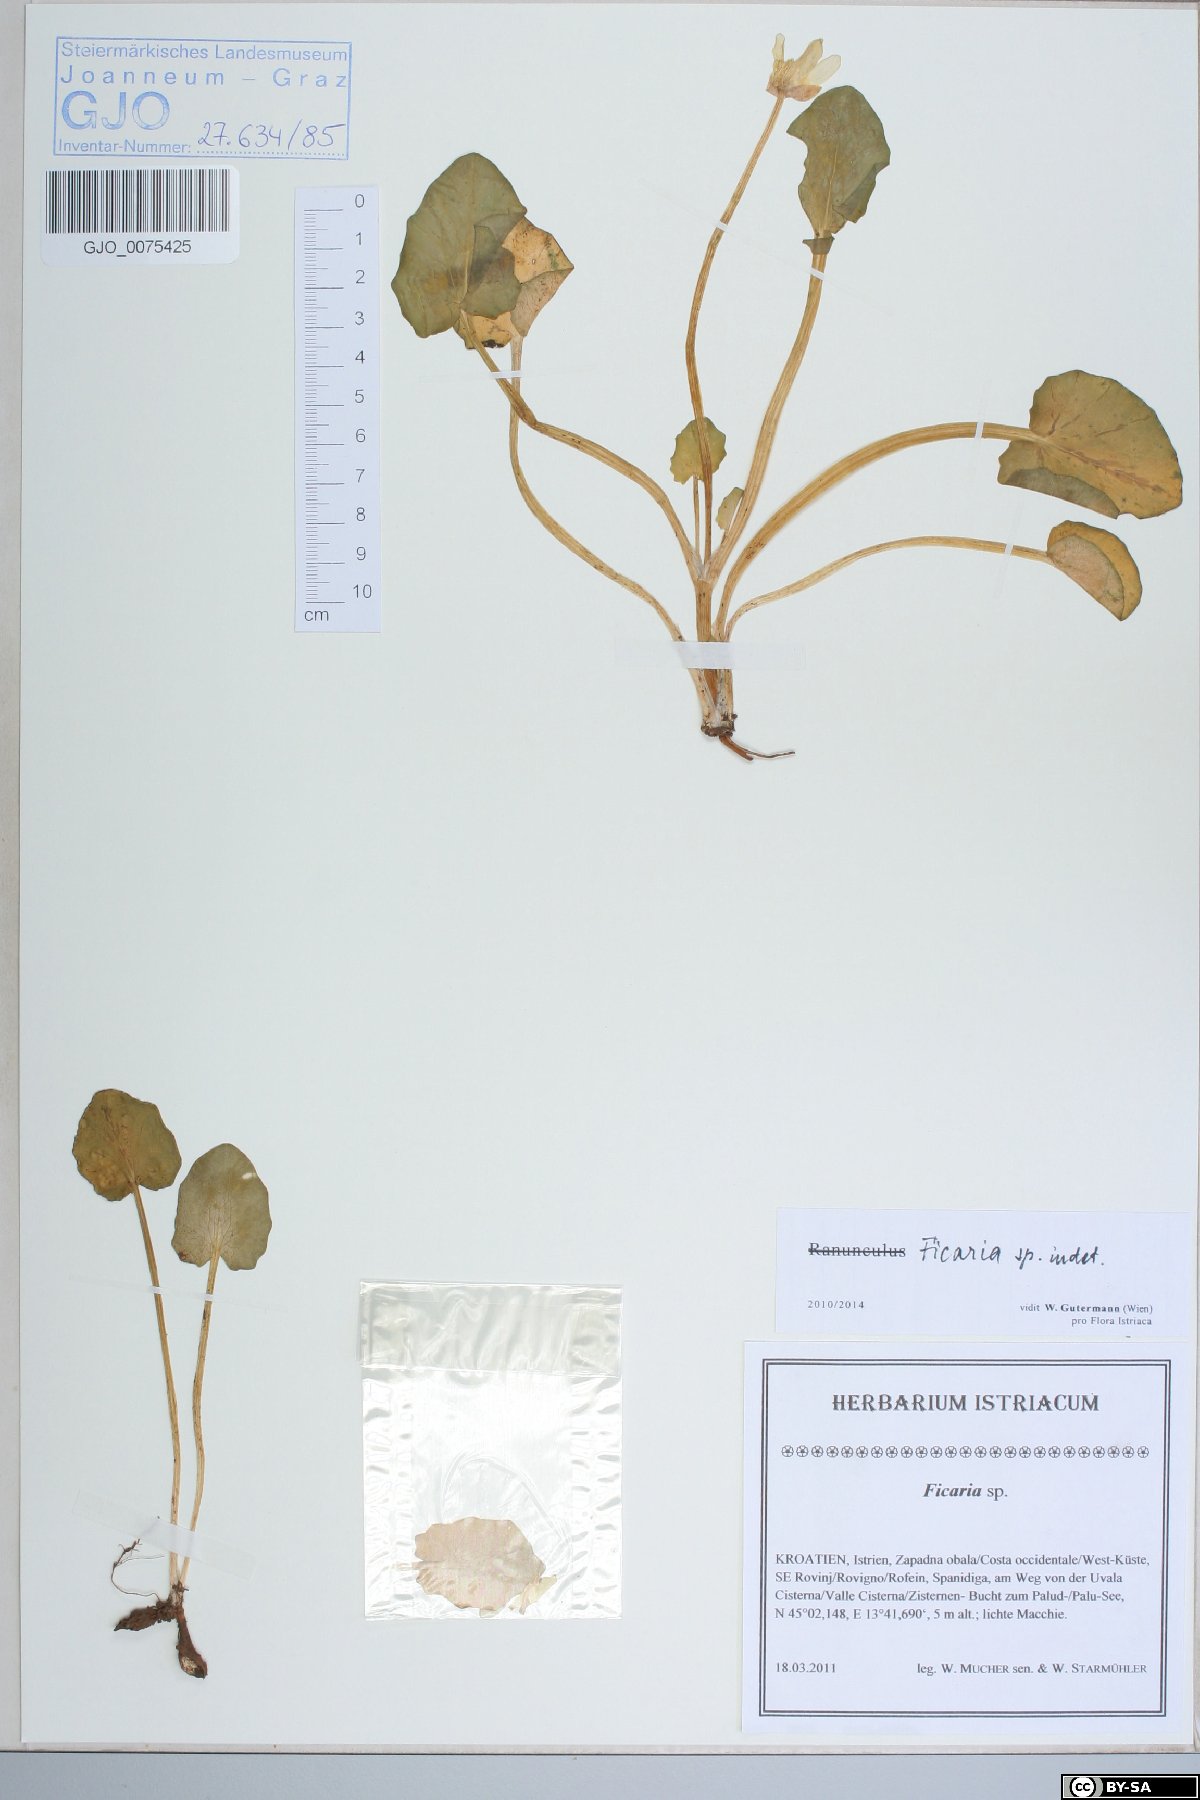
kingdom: Plantae
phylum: Tracheophyta
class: Magnoliopsida
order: Ranunculales
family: Ranunculaceae
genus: Ficaria
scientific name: Ficaria
